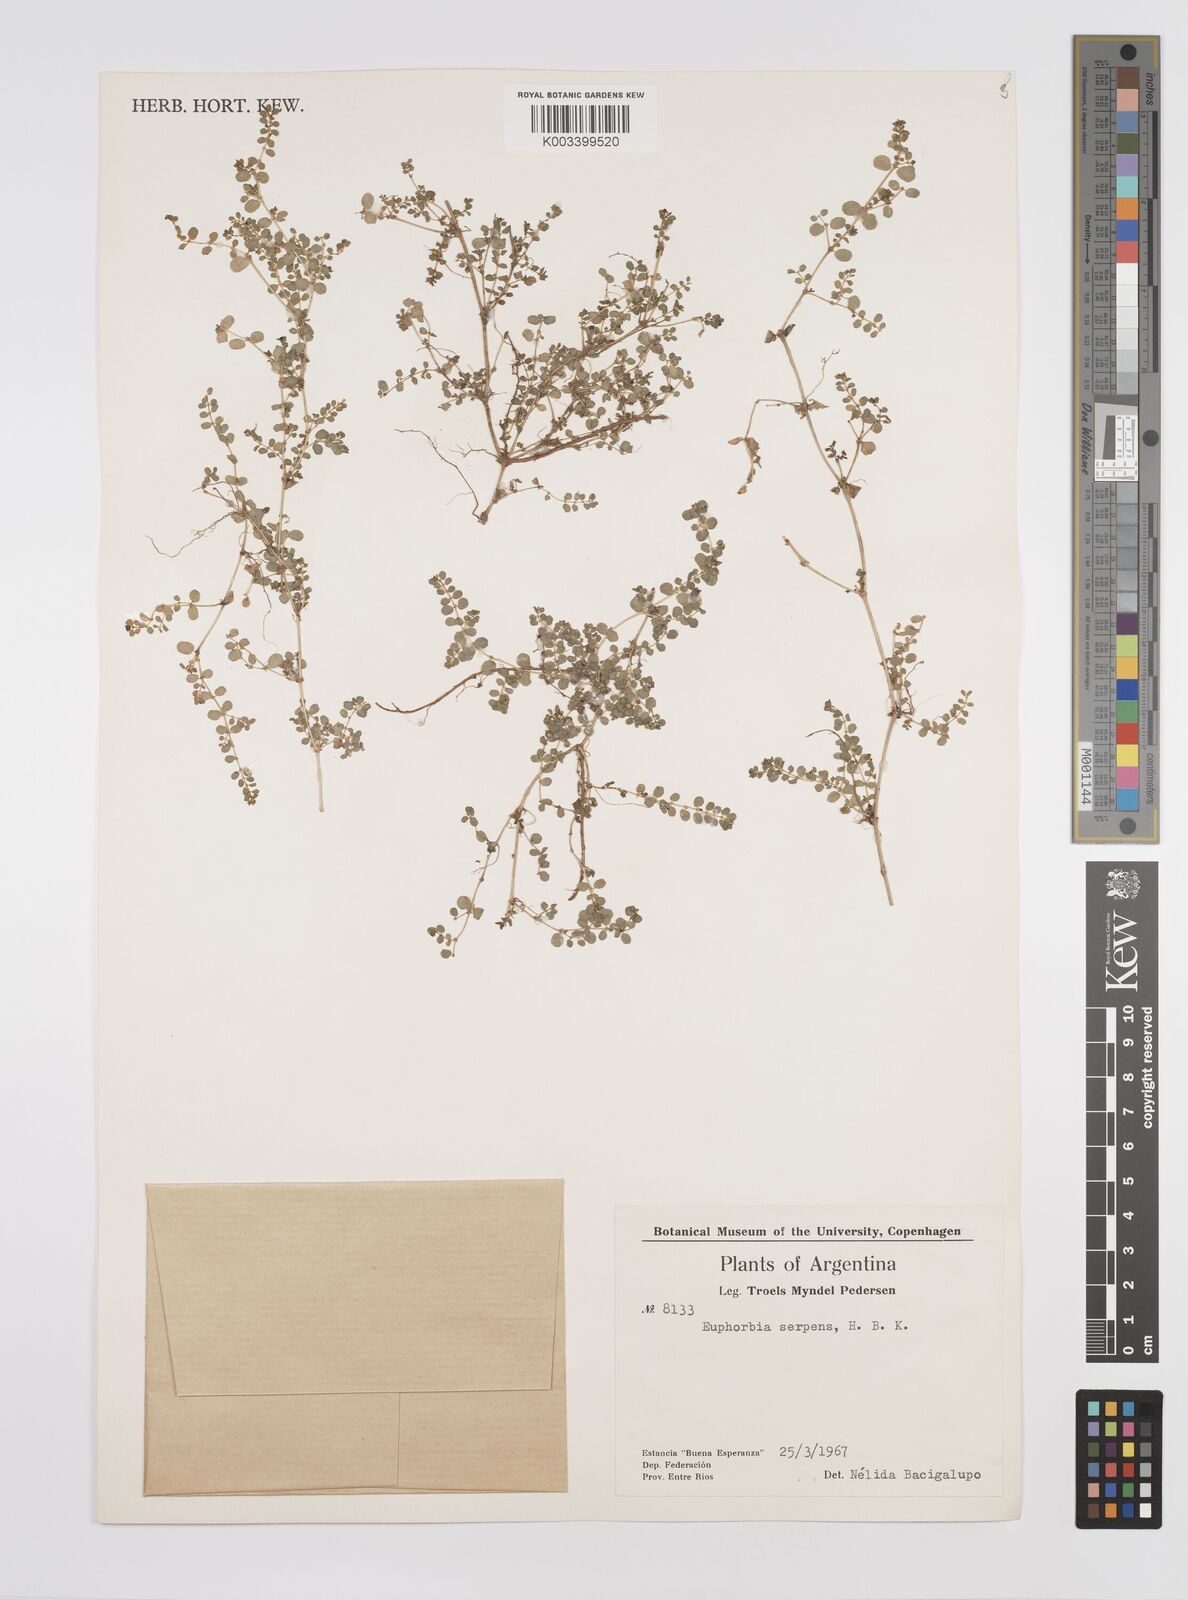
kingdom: Plantae
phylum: Tracheophyta
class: Magnoliopsida
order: Malpighiales
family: Euphorbiaceae
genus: Euphorbia
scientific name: Euphorbia
